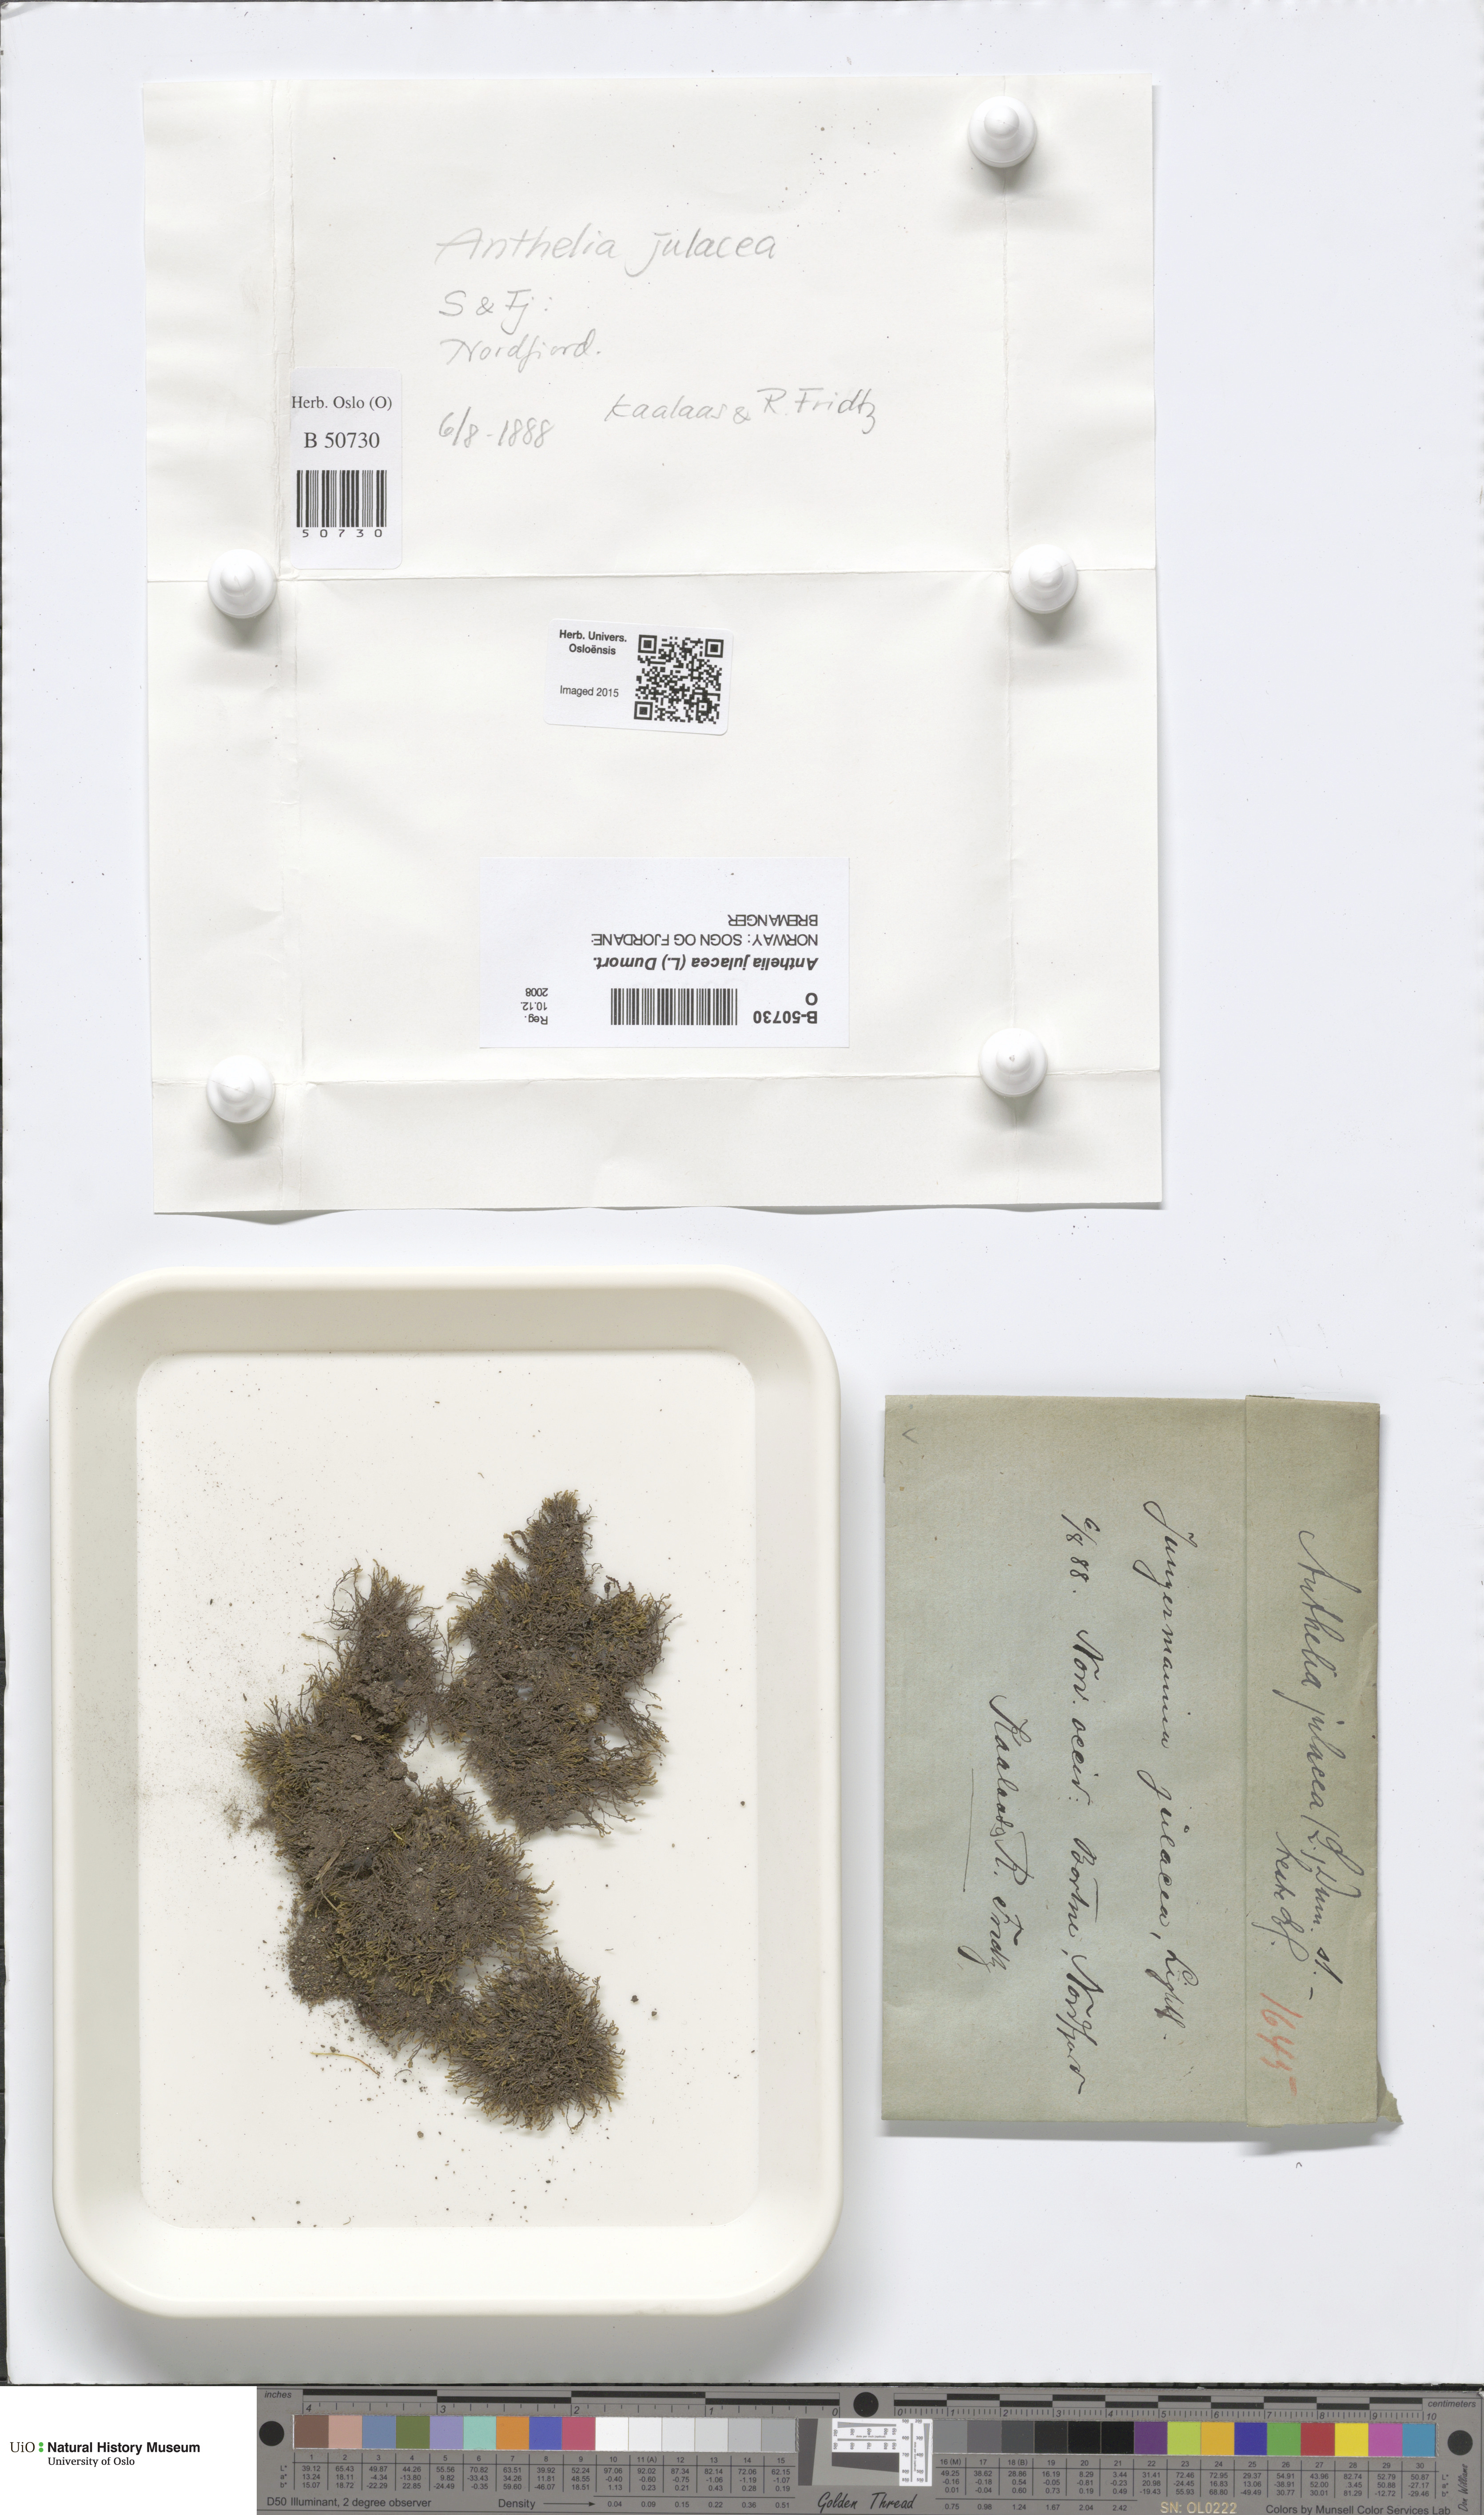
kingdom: Plantae
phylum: Marchantiophyta
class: Jungermanniopsida
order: Jungermanniales
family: Antheliaceae
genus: Anthelia
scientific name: Anthelia julacea
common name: Alpine silverwort
